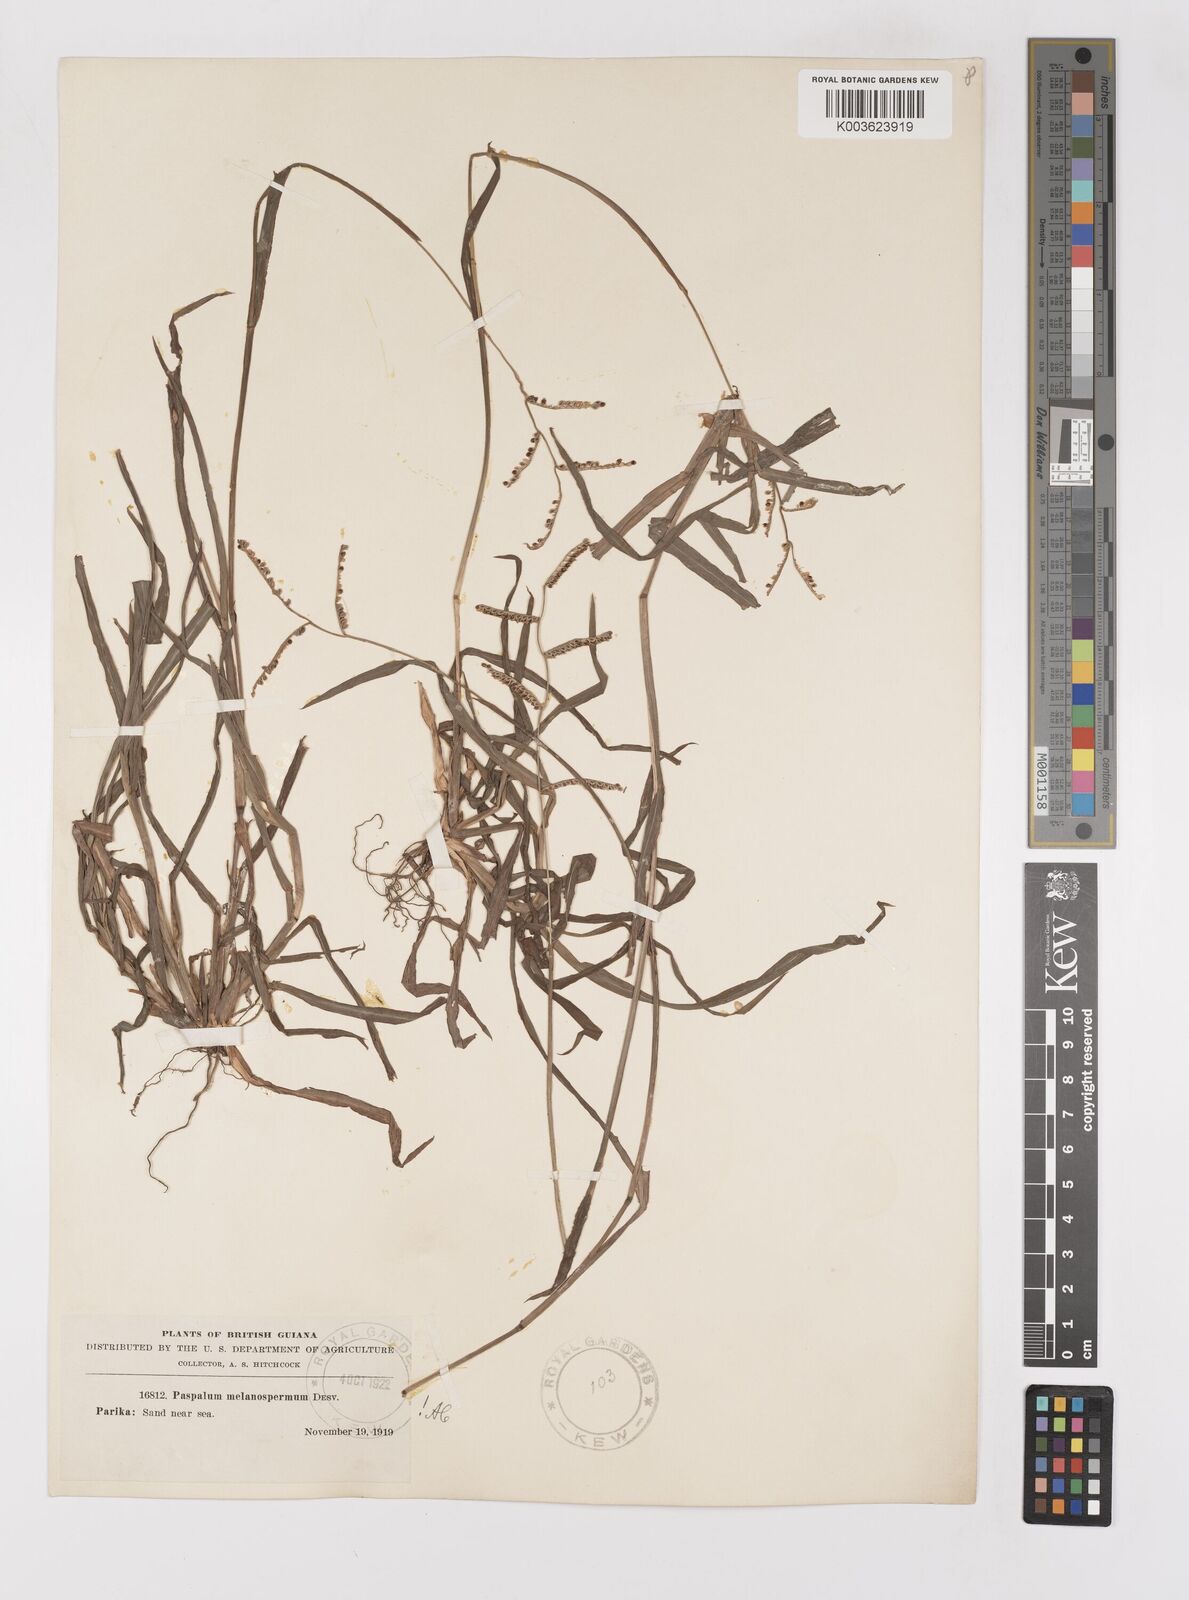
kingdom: Plantae
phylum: Tracheophyta
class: Liliopsida
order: Poales
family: Poaceae
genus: Paspalum
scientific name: Paspalum melanospermum
